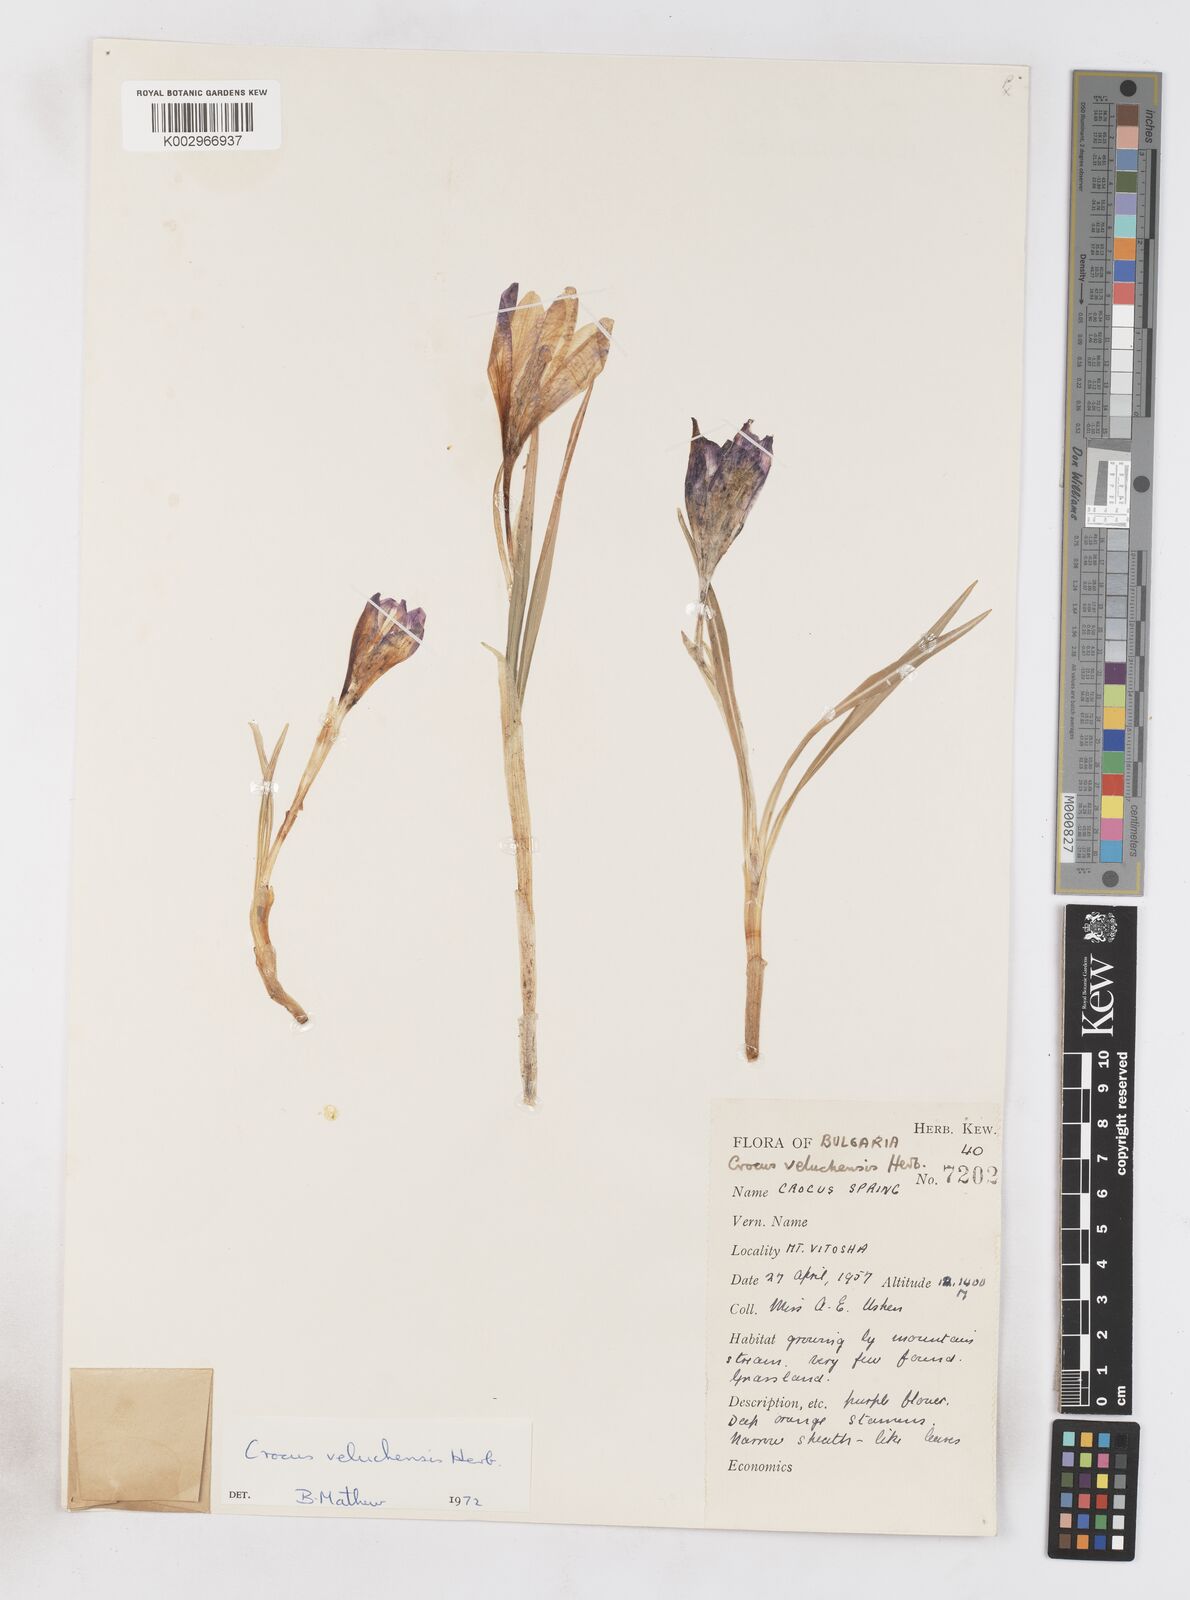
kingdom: Plantae
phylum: Tracheophyta
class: Liliopsida
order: Asparagales
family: Iridaceae
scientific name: Iridaceae
